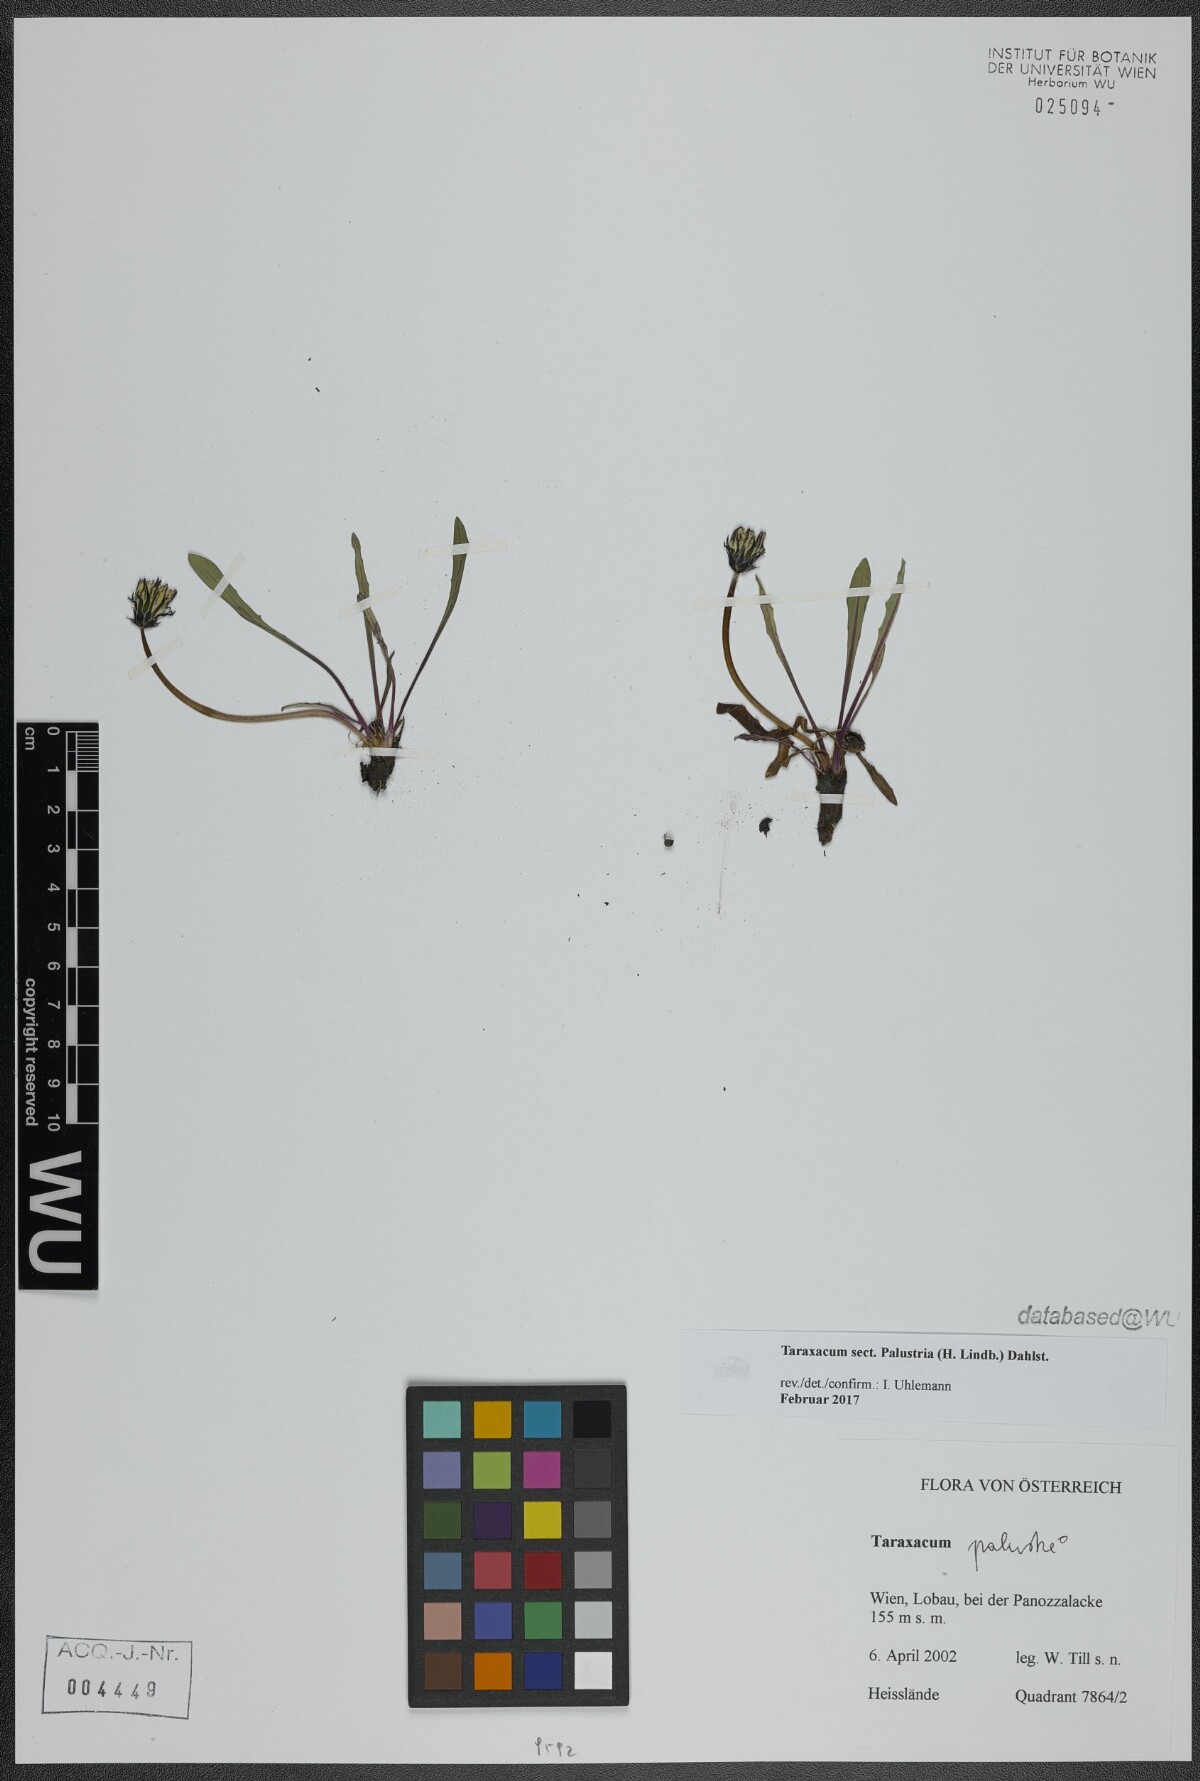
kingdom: Plantae
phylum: Tracheophyta
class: Magnoliopsida
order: Asterales
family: Asteraceae
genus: Taraxacum
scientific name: Taraxacum
